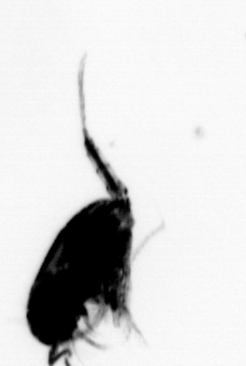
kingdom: Animalia
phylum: Arthropoda
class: Copepoda
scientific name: Copepoda
